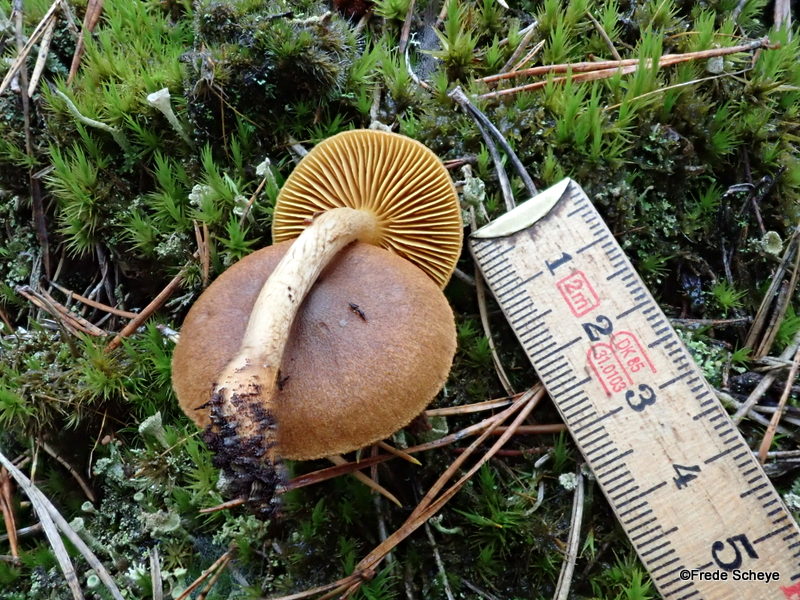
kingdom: Fungi
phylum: Basidiomycota
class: Agaricomycetes
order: Agaricales
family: Cortinariaceae
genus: Cortinarius
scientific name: Cortinarius
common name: gulbladet slørhat
